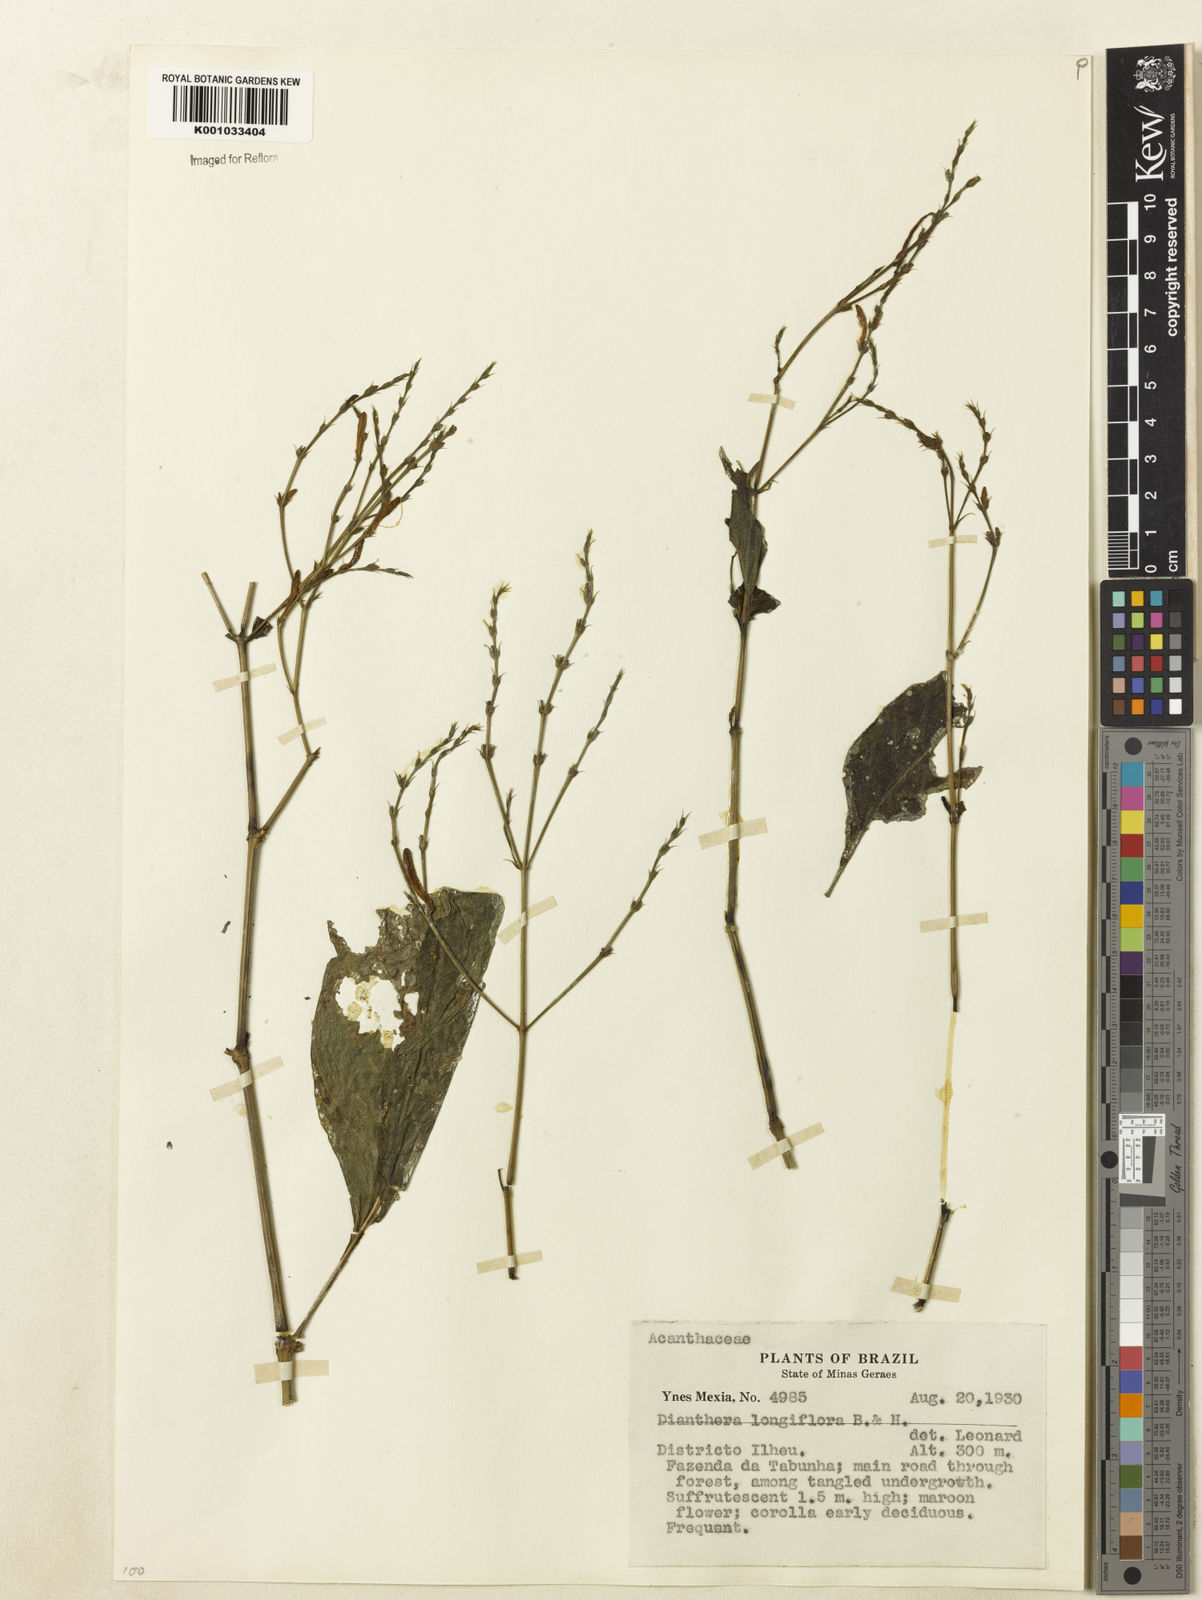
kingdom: Plantae
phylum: Tracheophyta
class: Magnoliopsida
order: Lamiales
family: Acanthaceae
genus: Justicia
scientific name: Justicia
